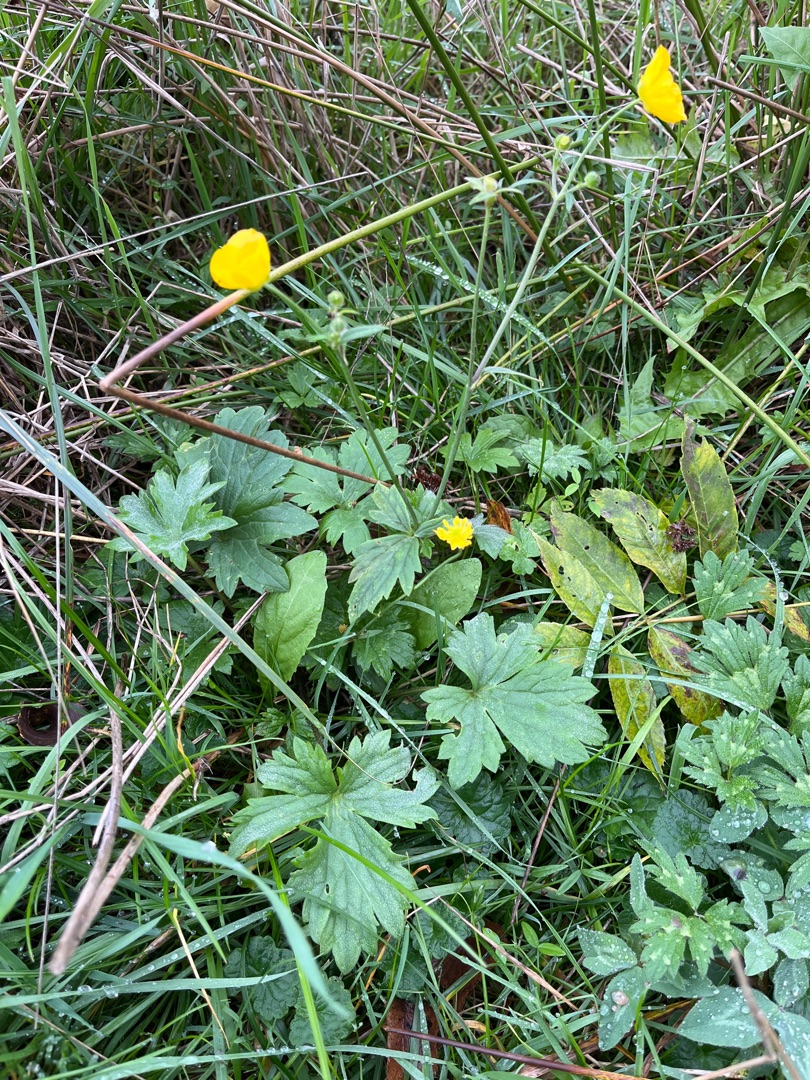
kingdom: Plantae
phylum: Tracheophyta
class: Magnoliopsida
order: Ranunculales
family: Ranunculaceae
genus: Ranunculus
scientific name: Ranunculus acris
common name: Bidende ranunkel
